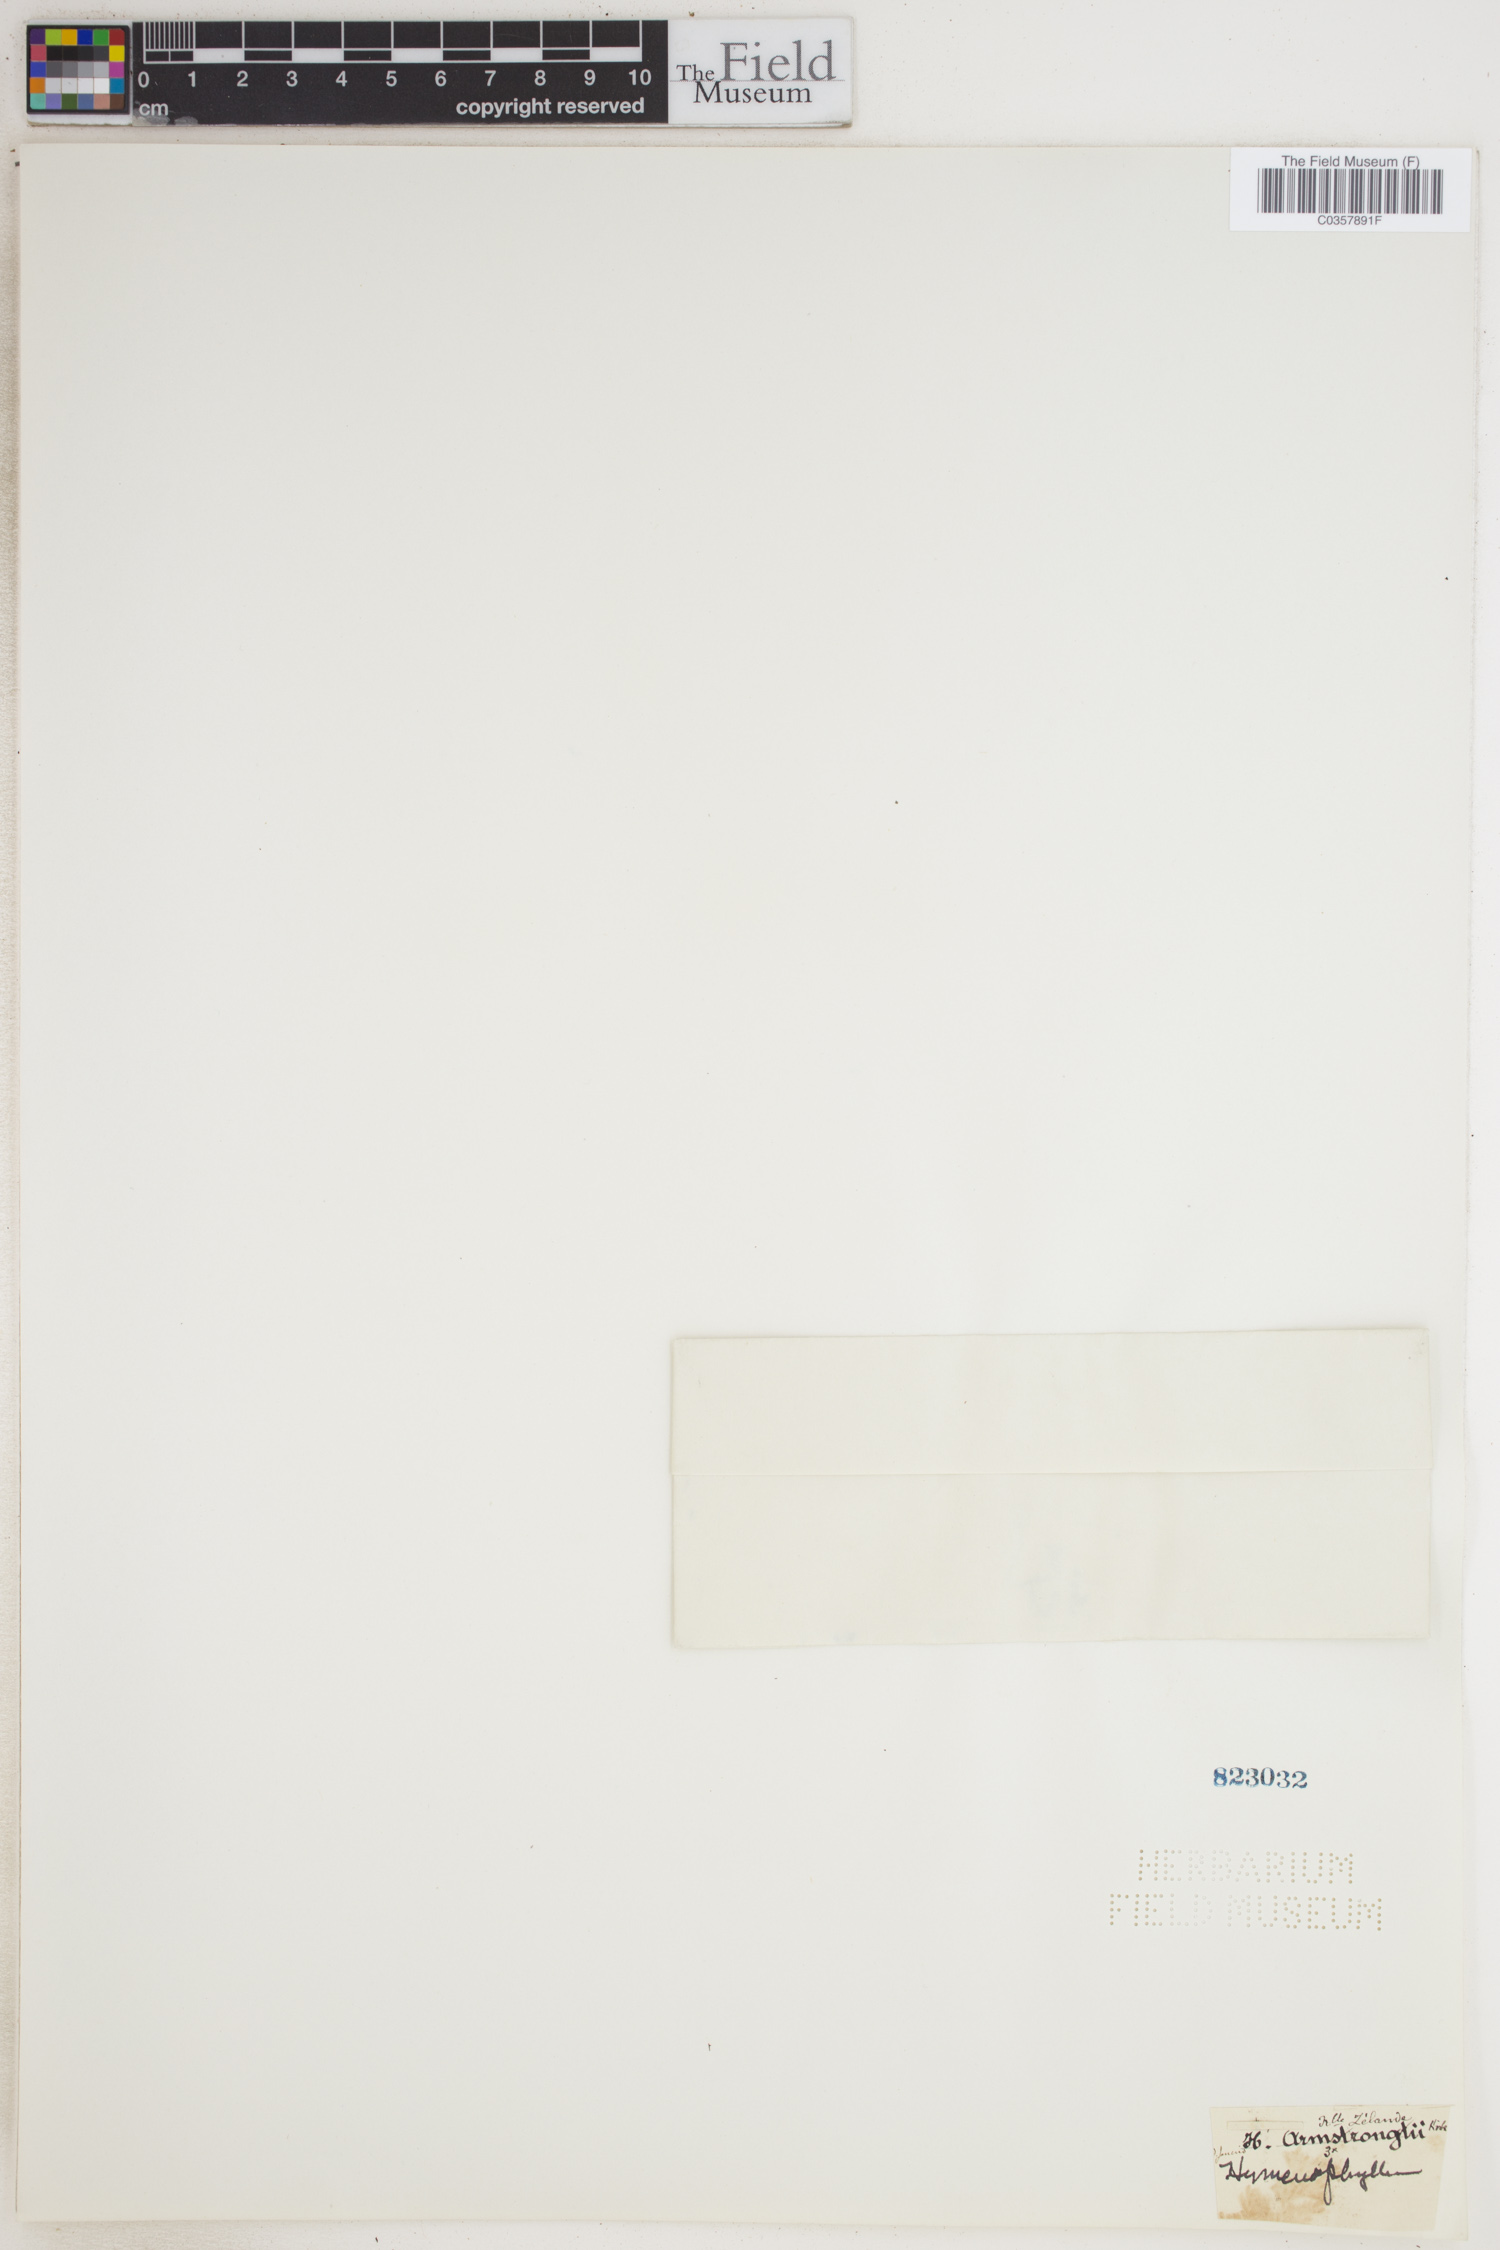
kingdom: Plantae
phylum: Tracheophyta
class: Polypodiopsida
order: Hymenophyllales
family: Hymenophyllaceae
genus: Hymenophyllum
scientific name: Hymenophyllum armstrongii
